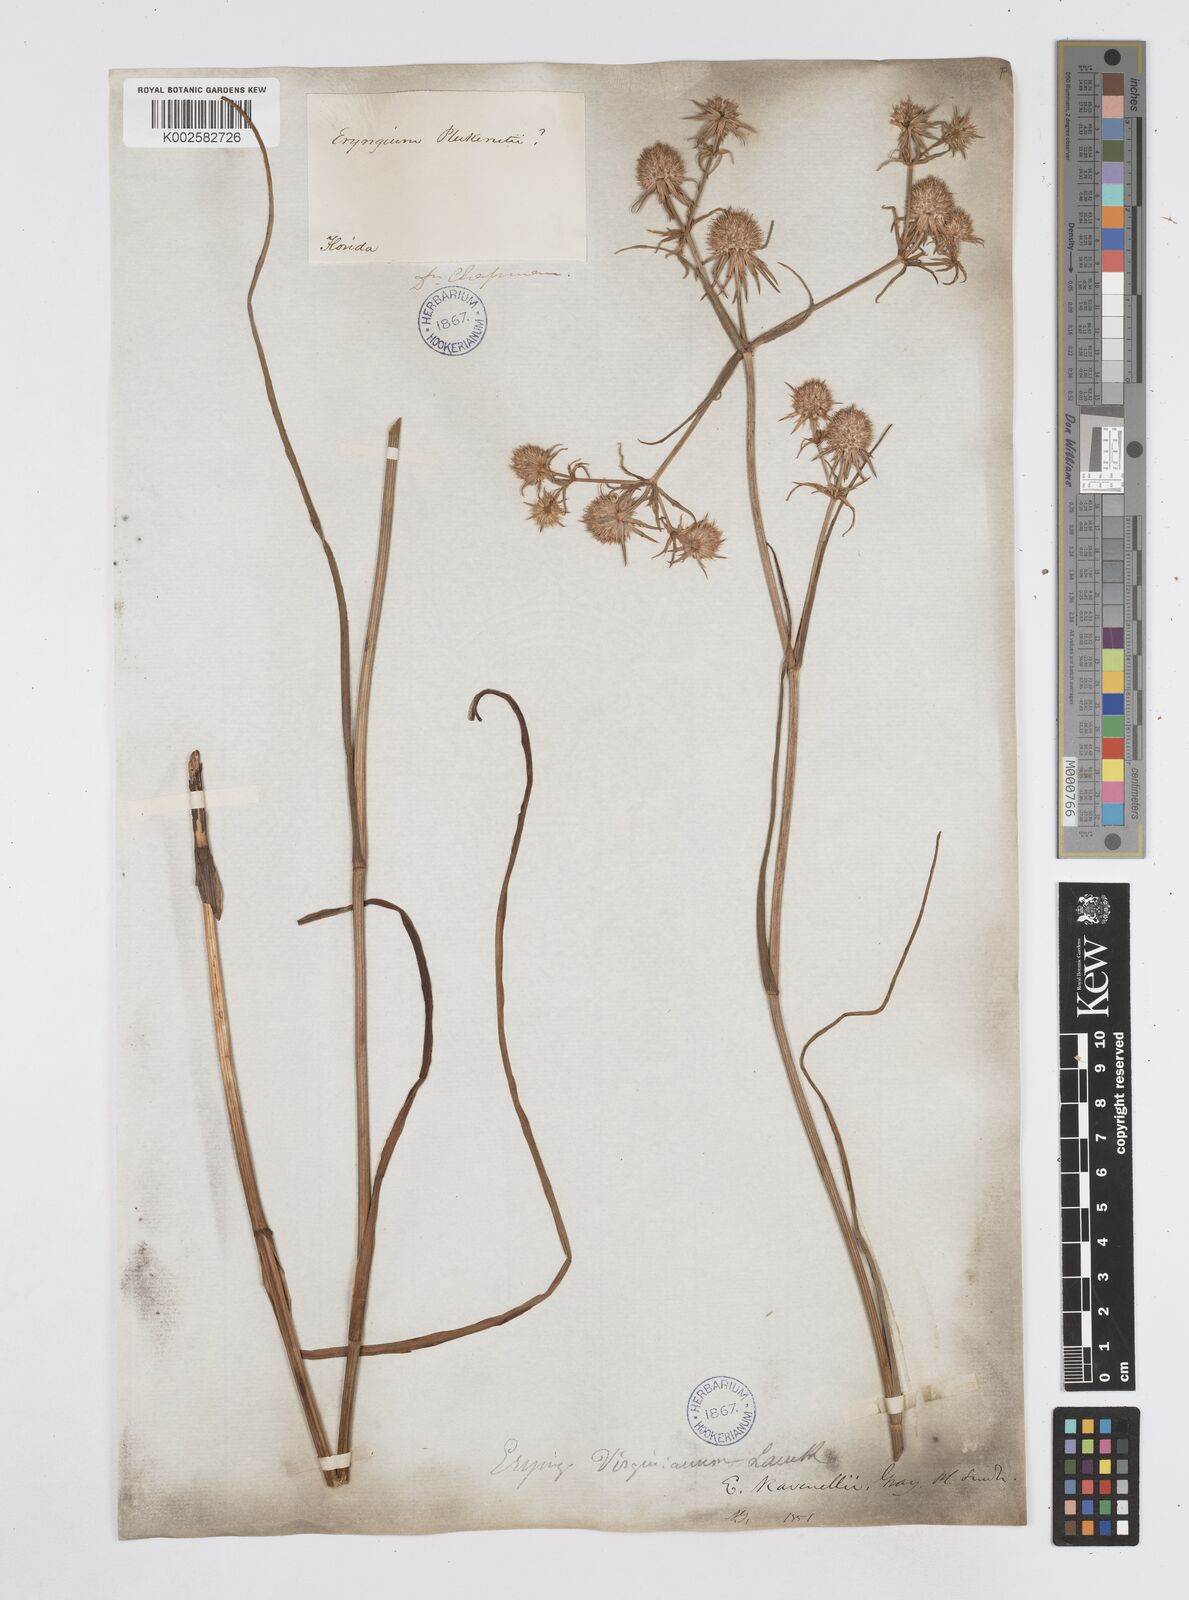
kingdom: Plantae
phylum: Tracheophyta
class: Magnoliopsida
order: Apiales
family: Apiaceae
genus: Eryngium
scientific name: Eryngium aquaticum
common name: Water eryngo
